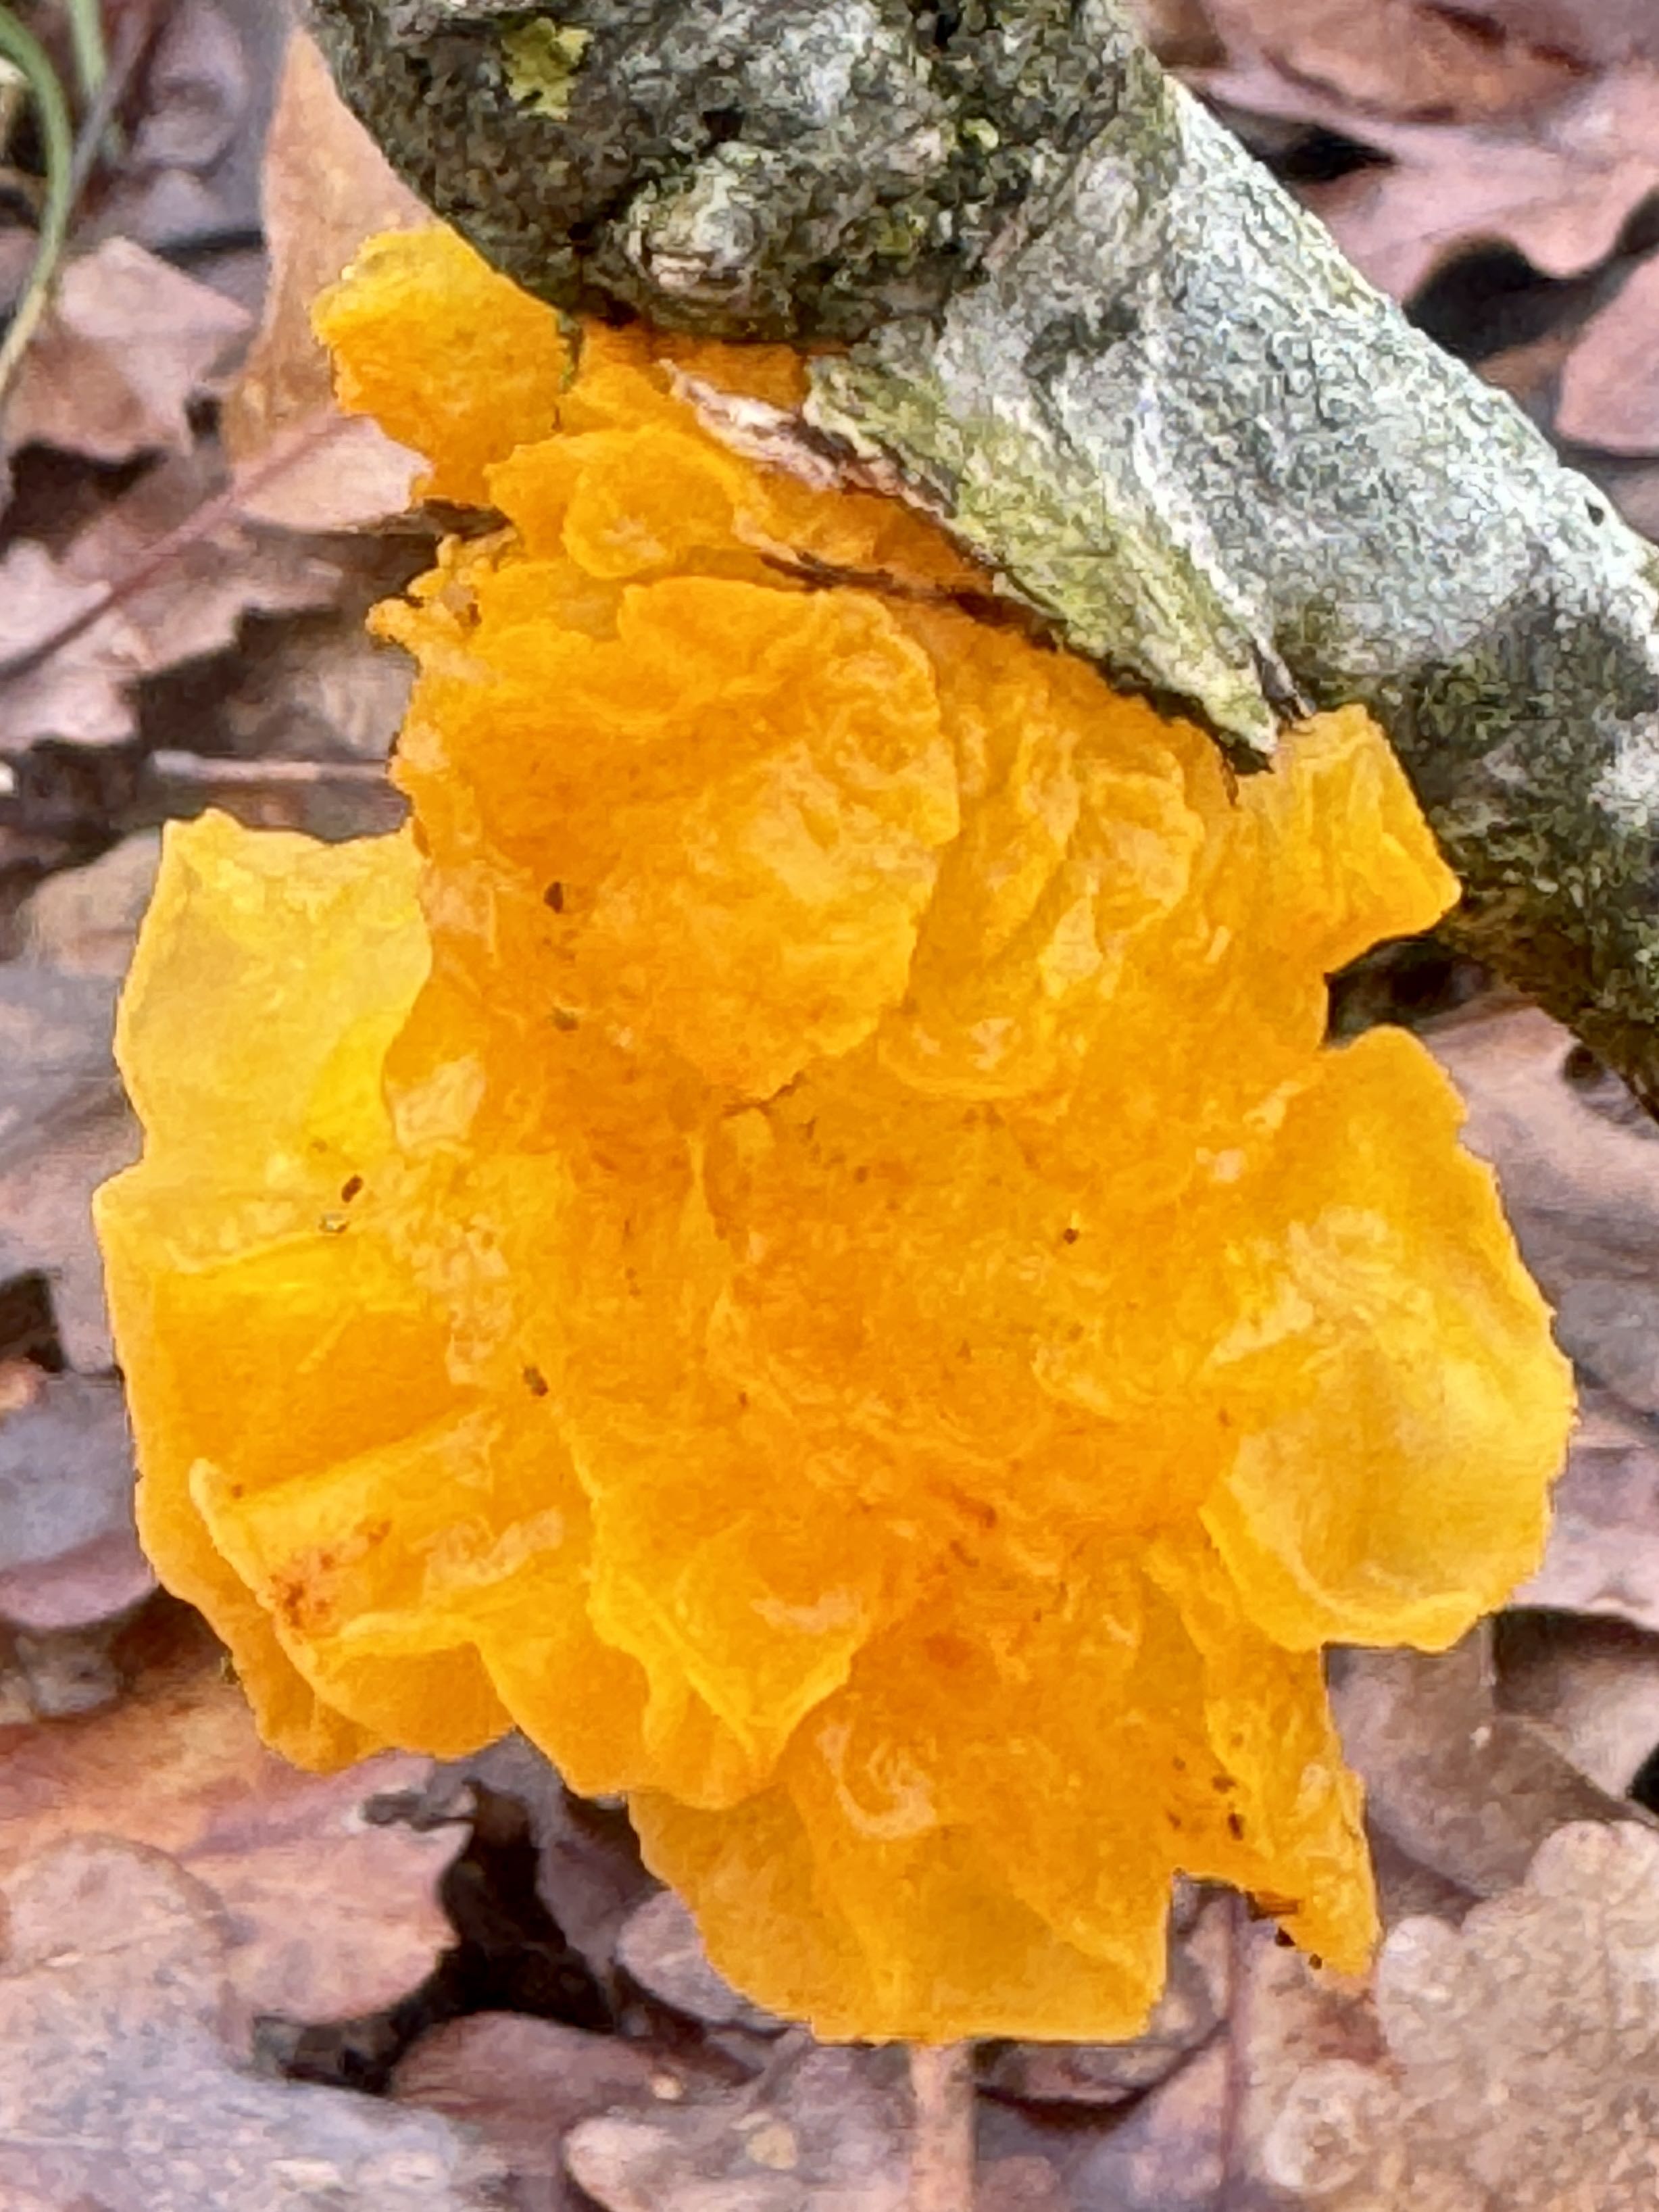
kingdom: Fungi
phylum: Basidiomycota
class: Tremellomycetes
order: Tremellales
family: Tremellaceae
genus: Tremella
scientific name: Tremella mesenterica
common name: gul bævresvamp
